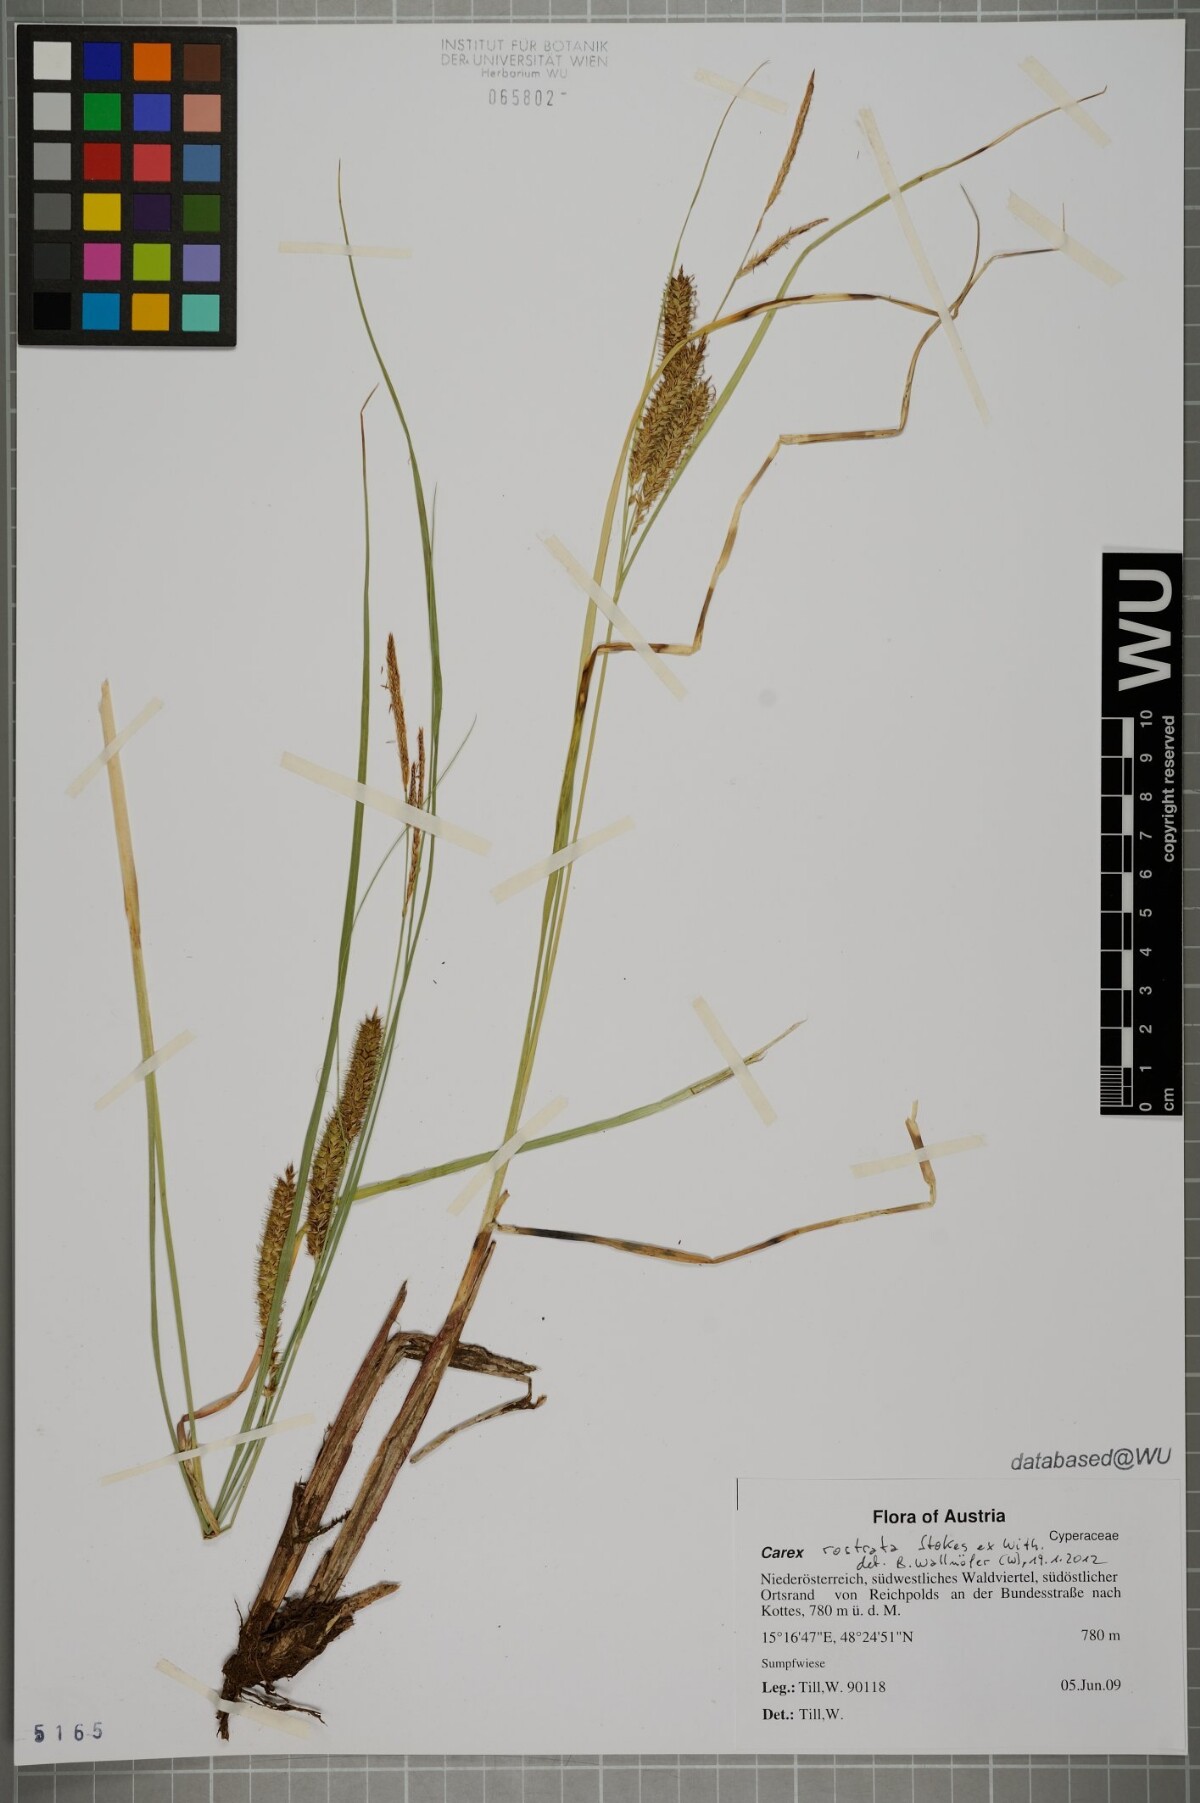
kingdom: Plantae
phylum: Tracheophyta
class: Liliopsida
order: Poales
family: Cyperaceae
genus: Carex
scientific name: Carex rostrata
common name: Bottle sedge
